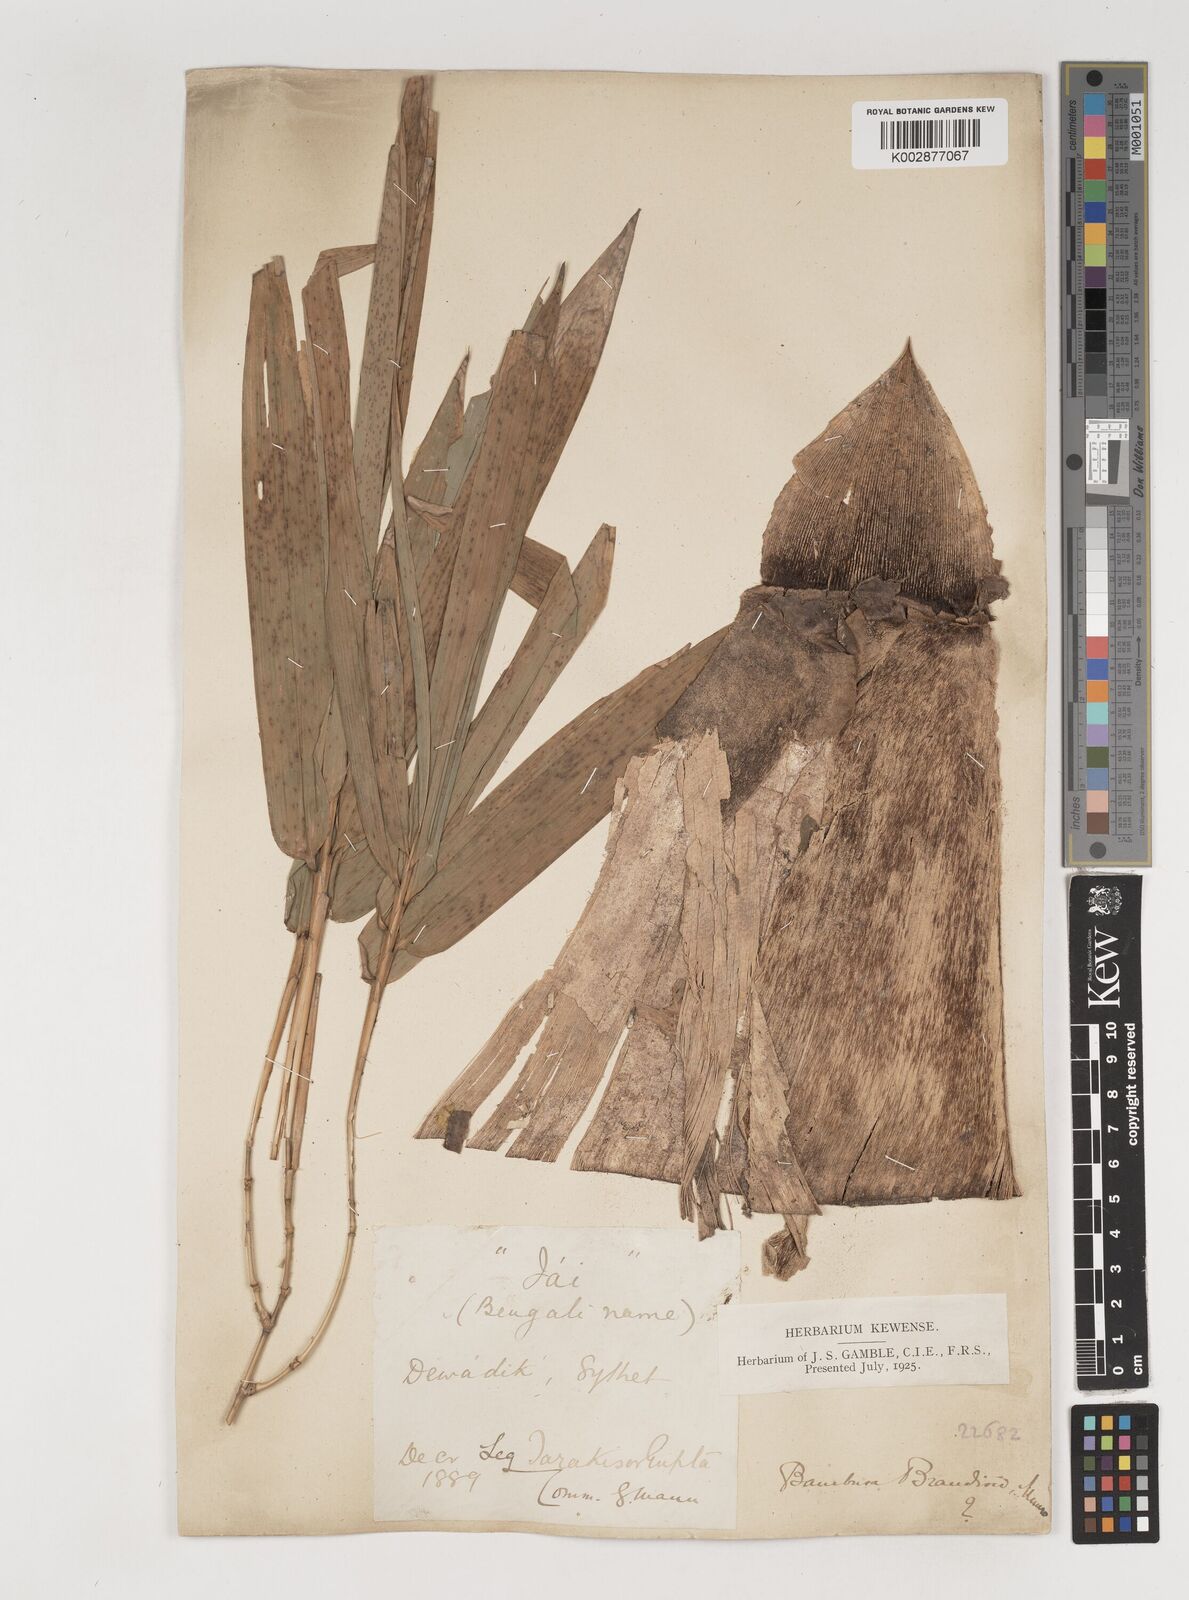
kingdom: Plantae
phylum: Tracheophyta
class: Liliopsida
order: Poales
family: Poaceae
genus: Bambusa
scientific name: Bambusa
